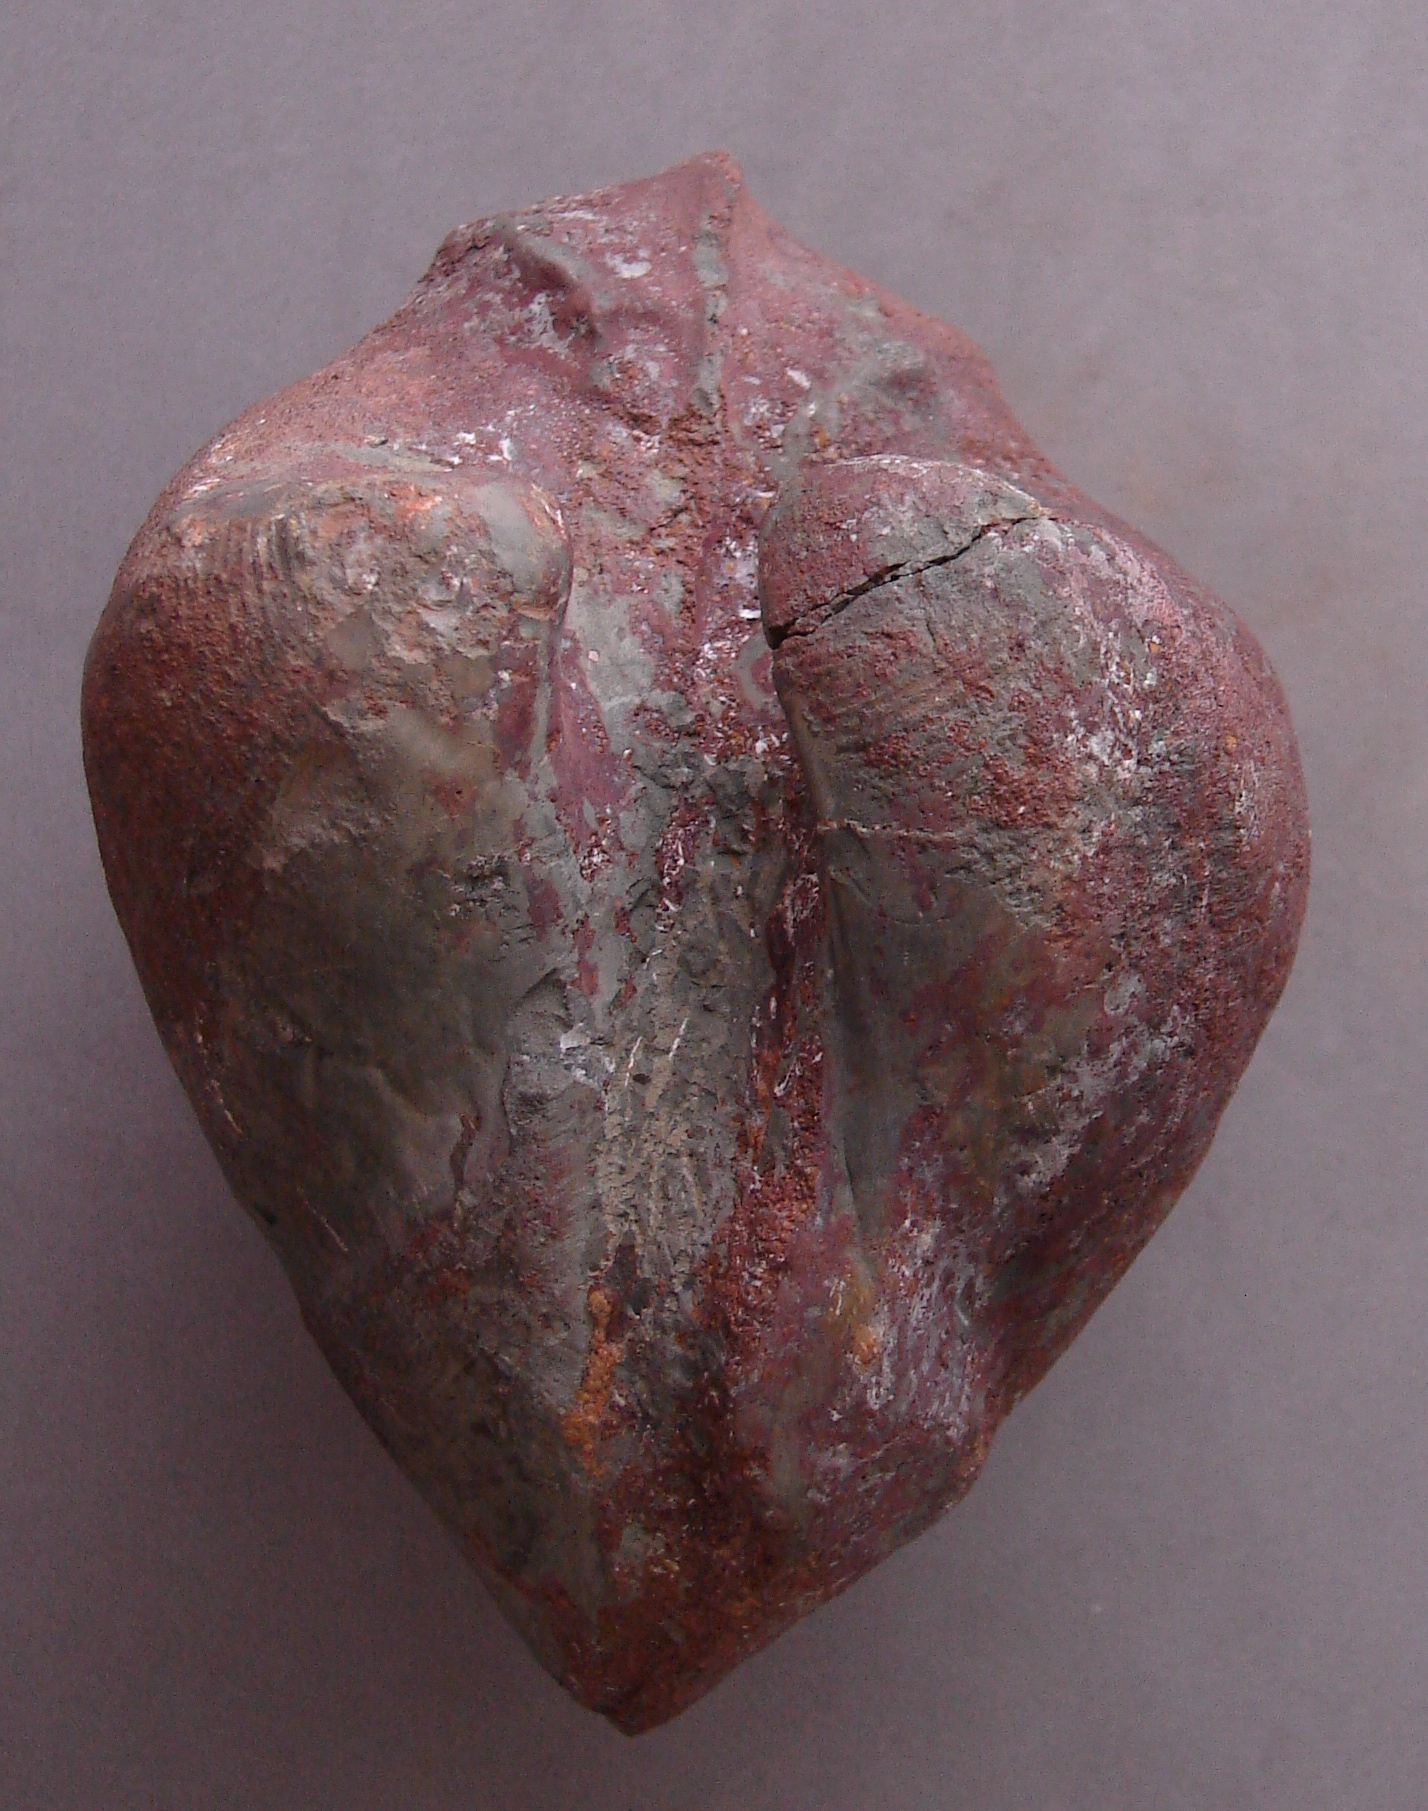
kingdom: Animalia
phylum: Mollusca
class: Bivalvia
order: Myida
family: Ceratomyidae
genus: Ceratomya
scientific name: Ceratomya
